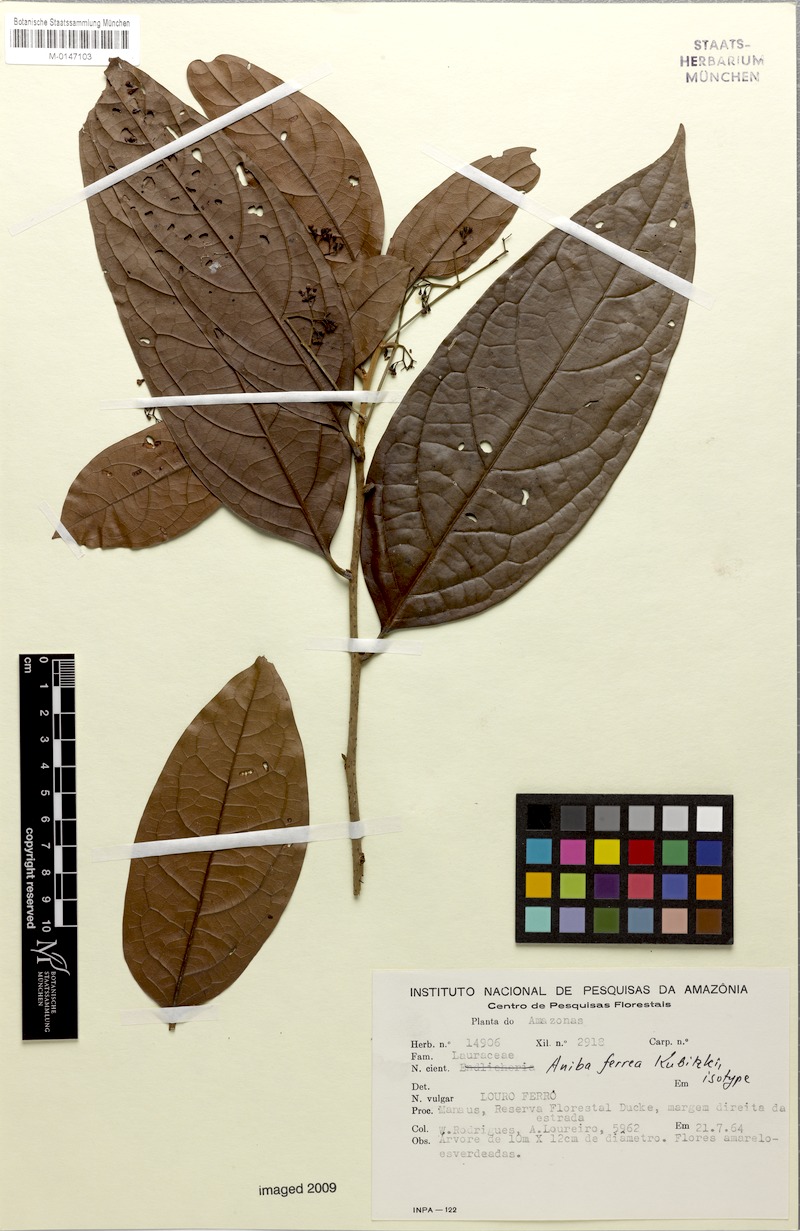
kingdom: Plantae
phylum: Tracheophyta
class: Magnoliopsida
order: Laurales
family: Lauraceae
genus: Aniba
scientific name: Aniba ferrea
